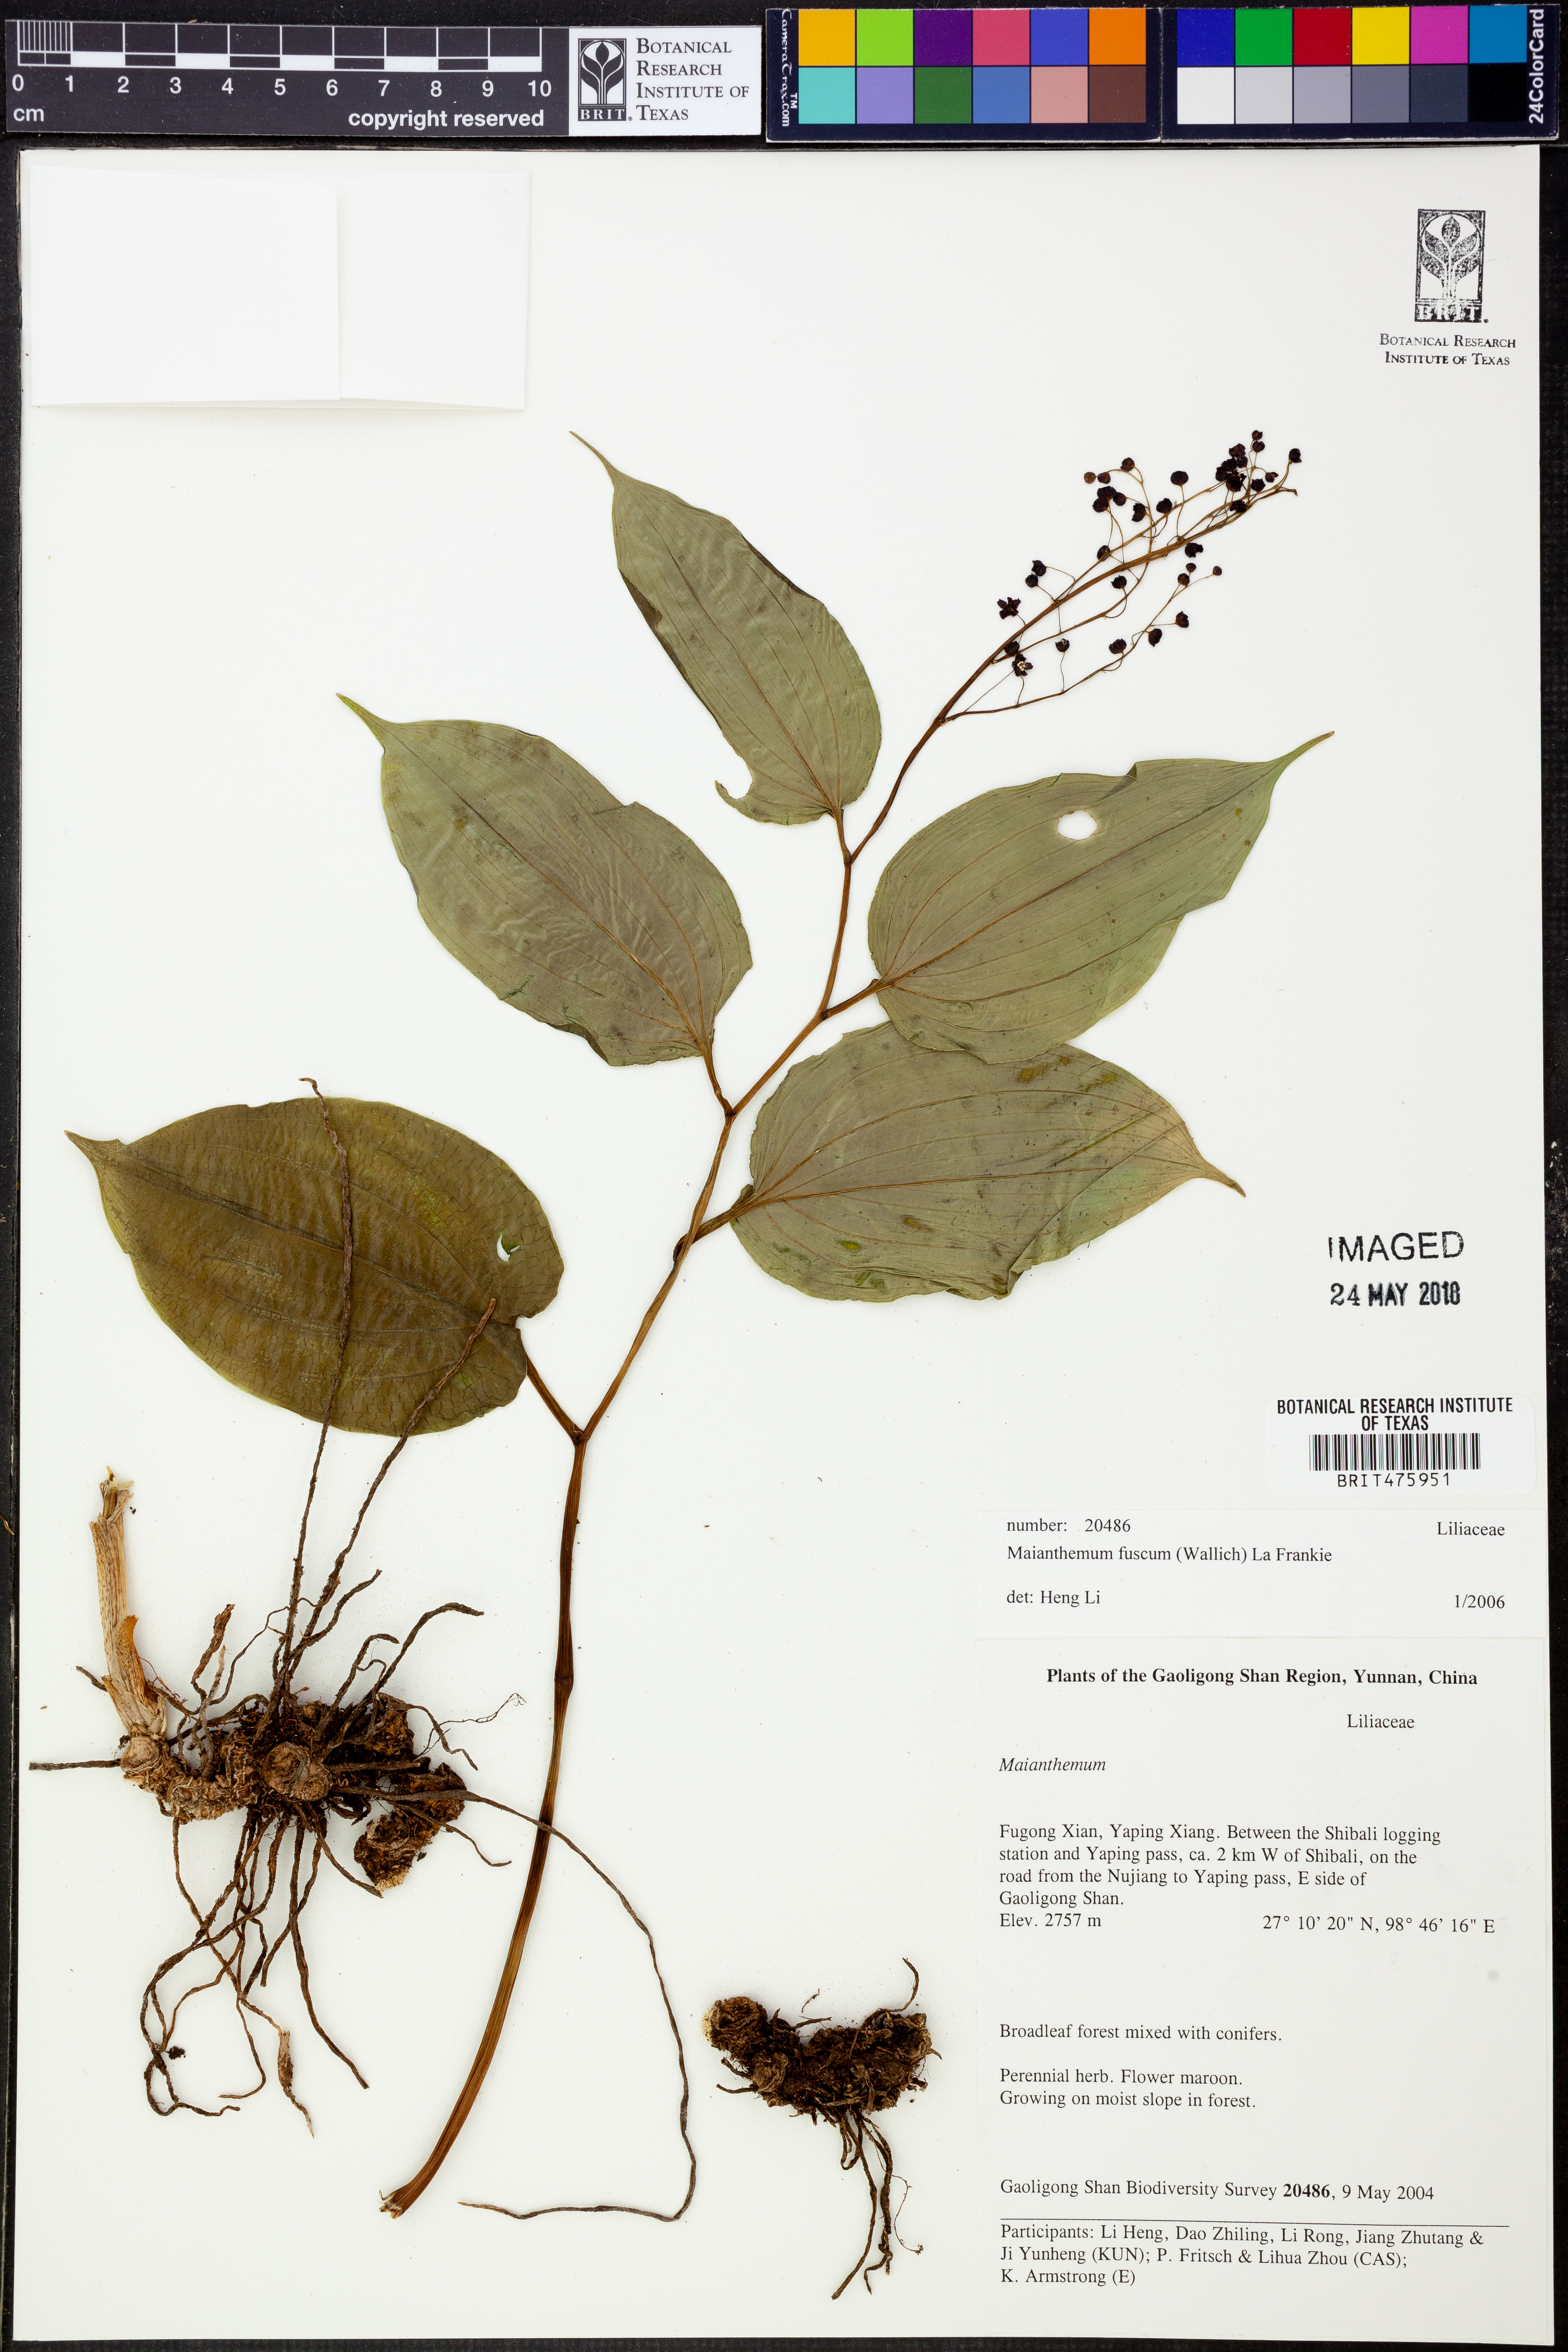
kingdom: Plantae
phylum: Tracheophyta
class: Liliopsida
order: Asparagales
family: Asparagaceae
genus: Maianthemum
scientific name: Maianthemum fuscum
